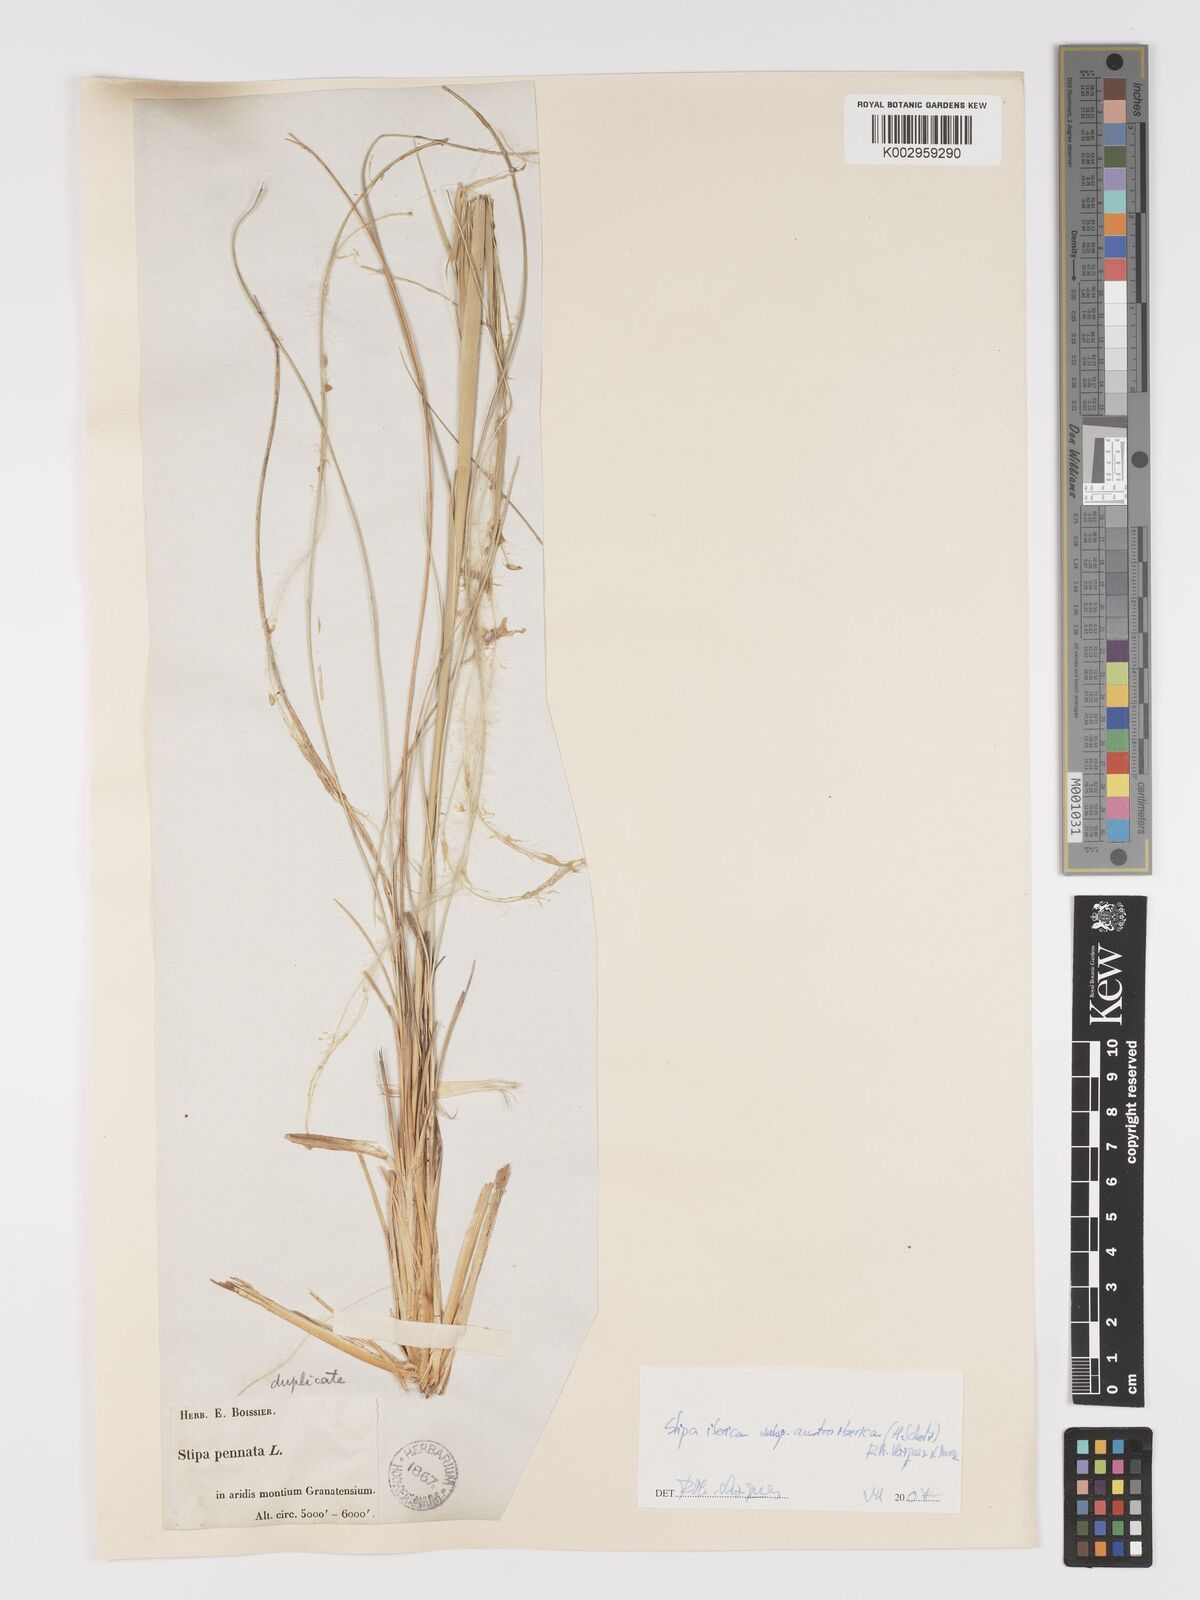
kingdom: Plantae
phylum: Tracheophyta
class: Liliopsida
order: Poales
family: Poaceae
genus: Stipa
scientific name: Stipa iberica
